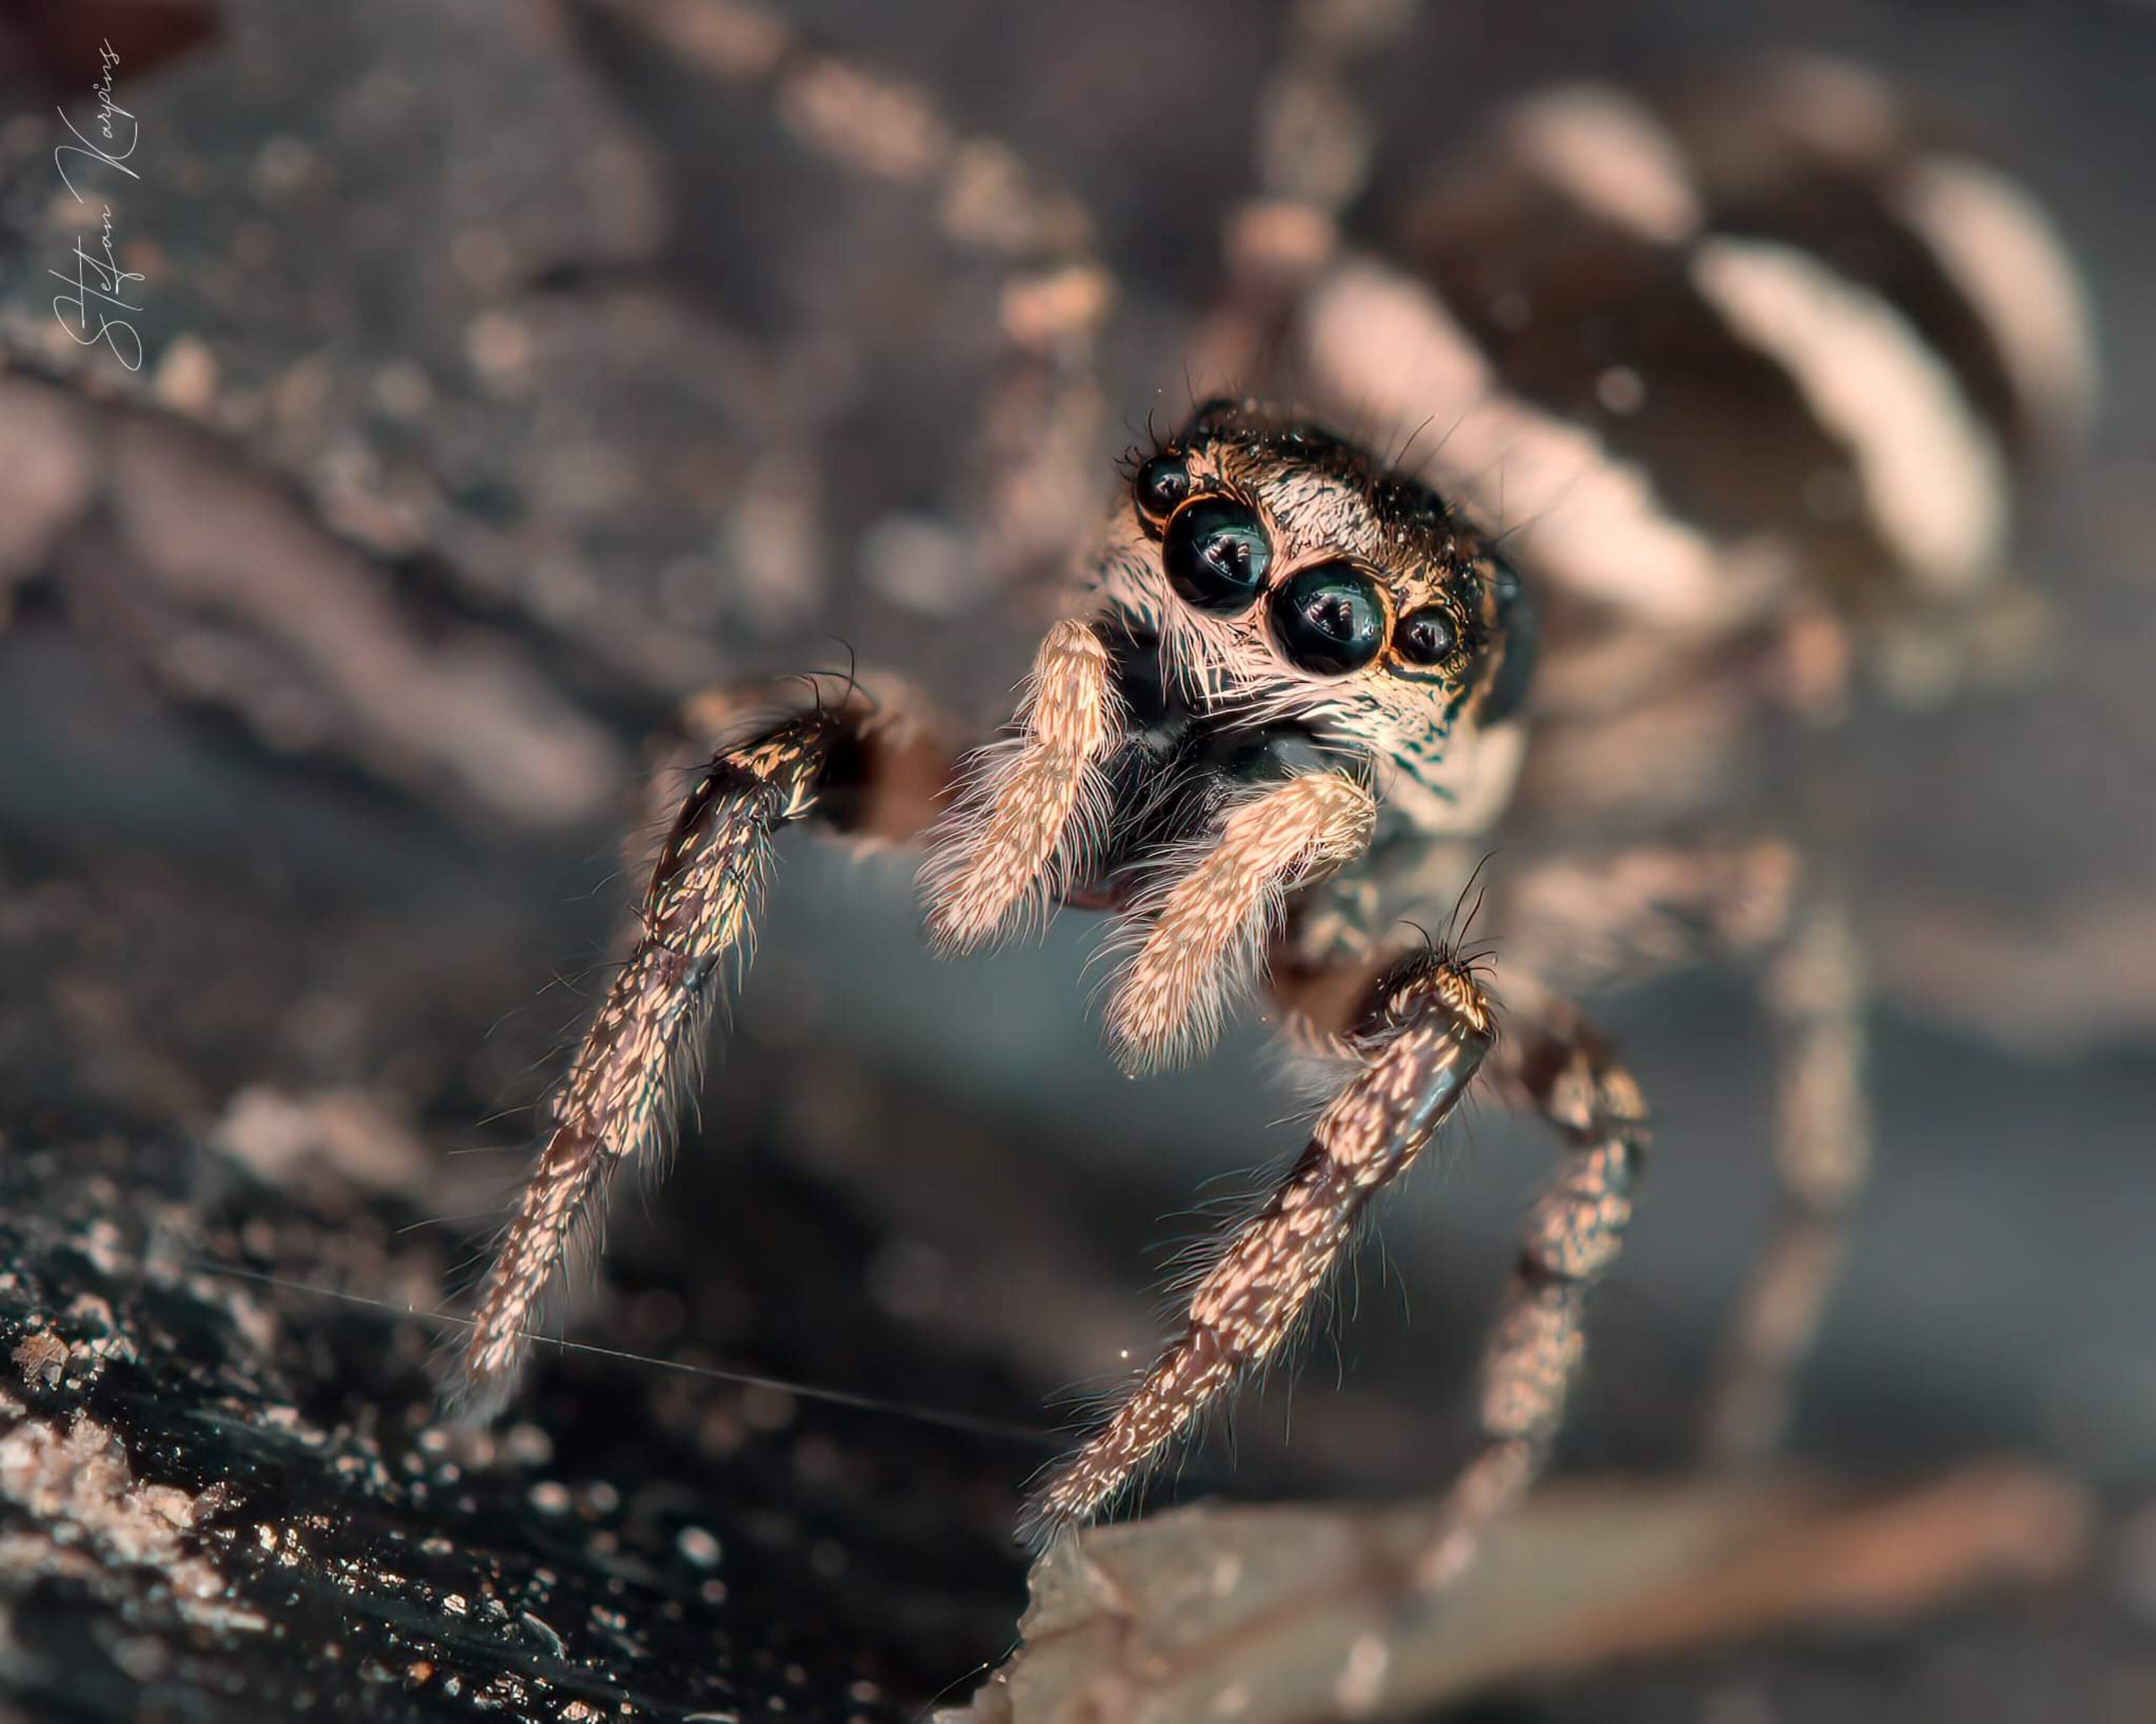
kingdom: Animalia
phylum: Arthropoda
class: Arachnida
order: Araneae
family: Salticidae
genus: Salticus
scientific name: Salticus scenicus
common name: Almindelig zebraedderkop
